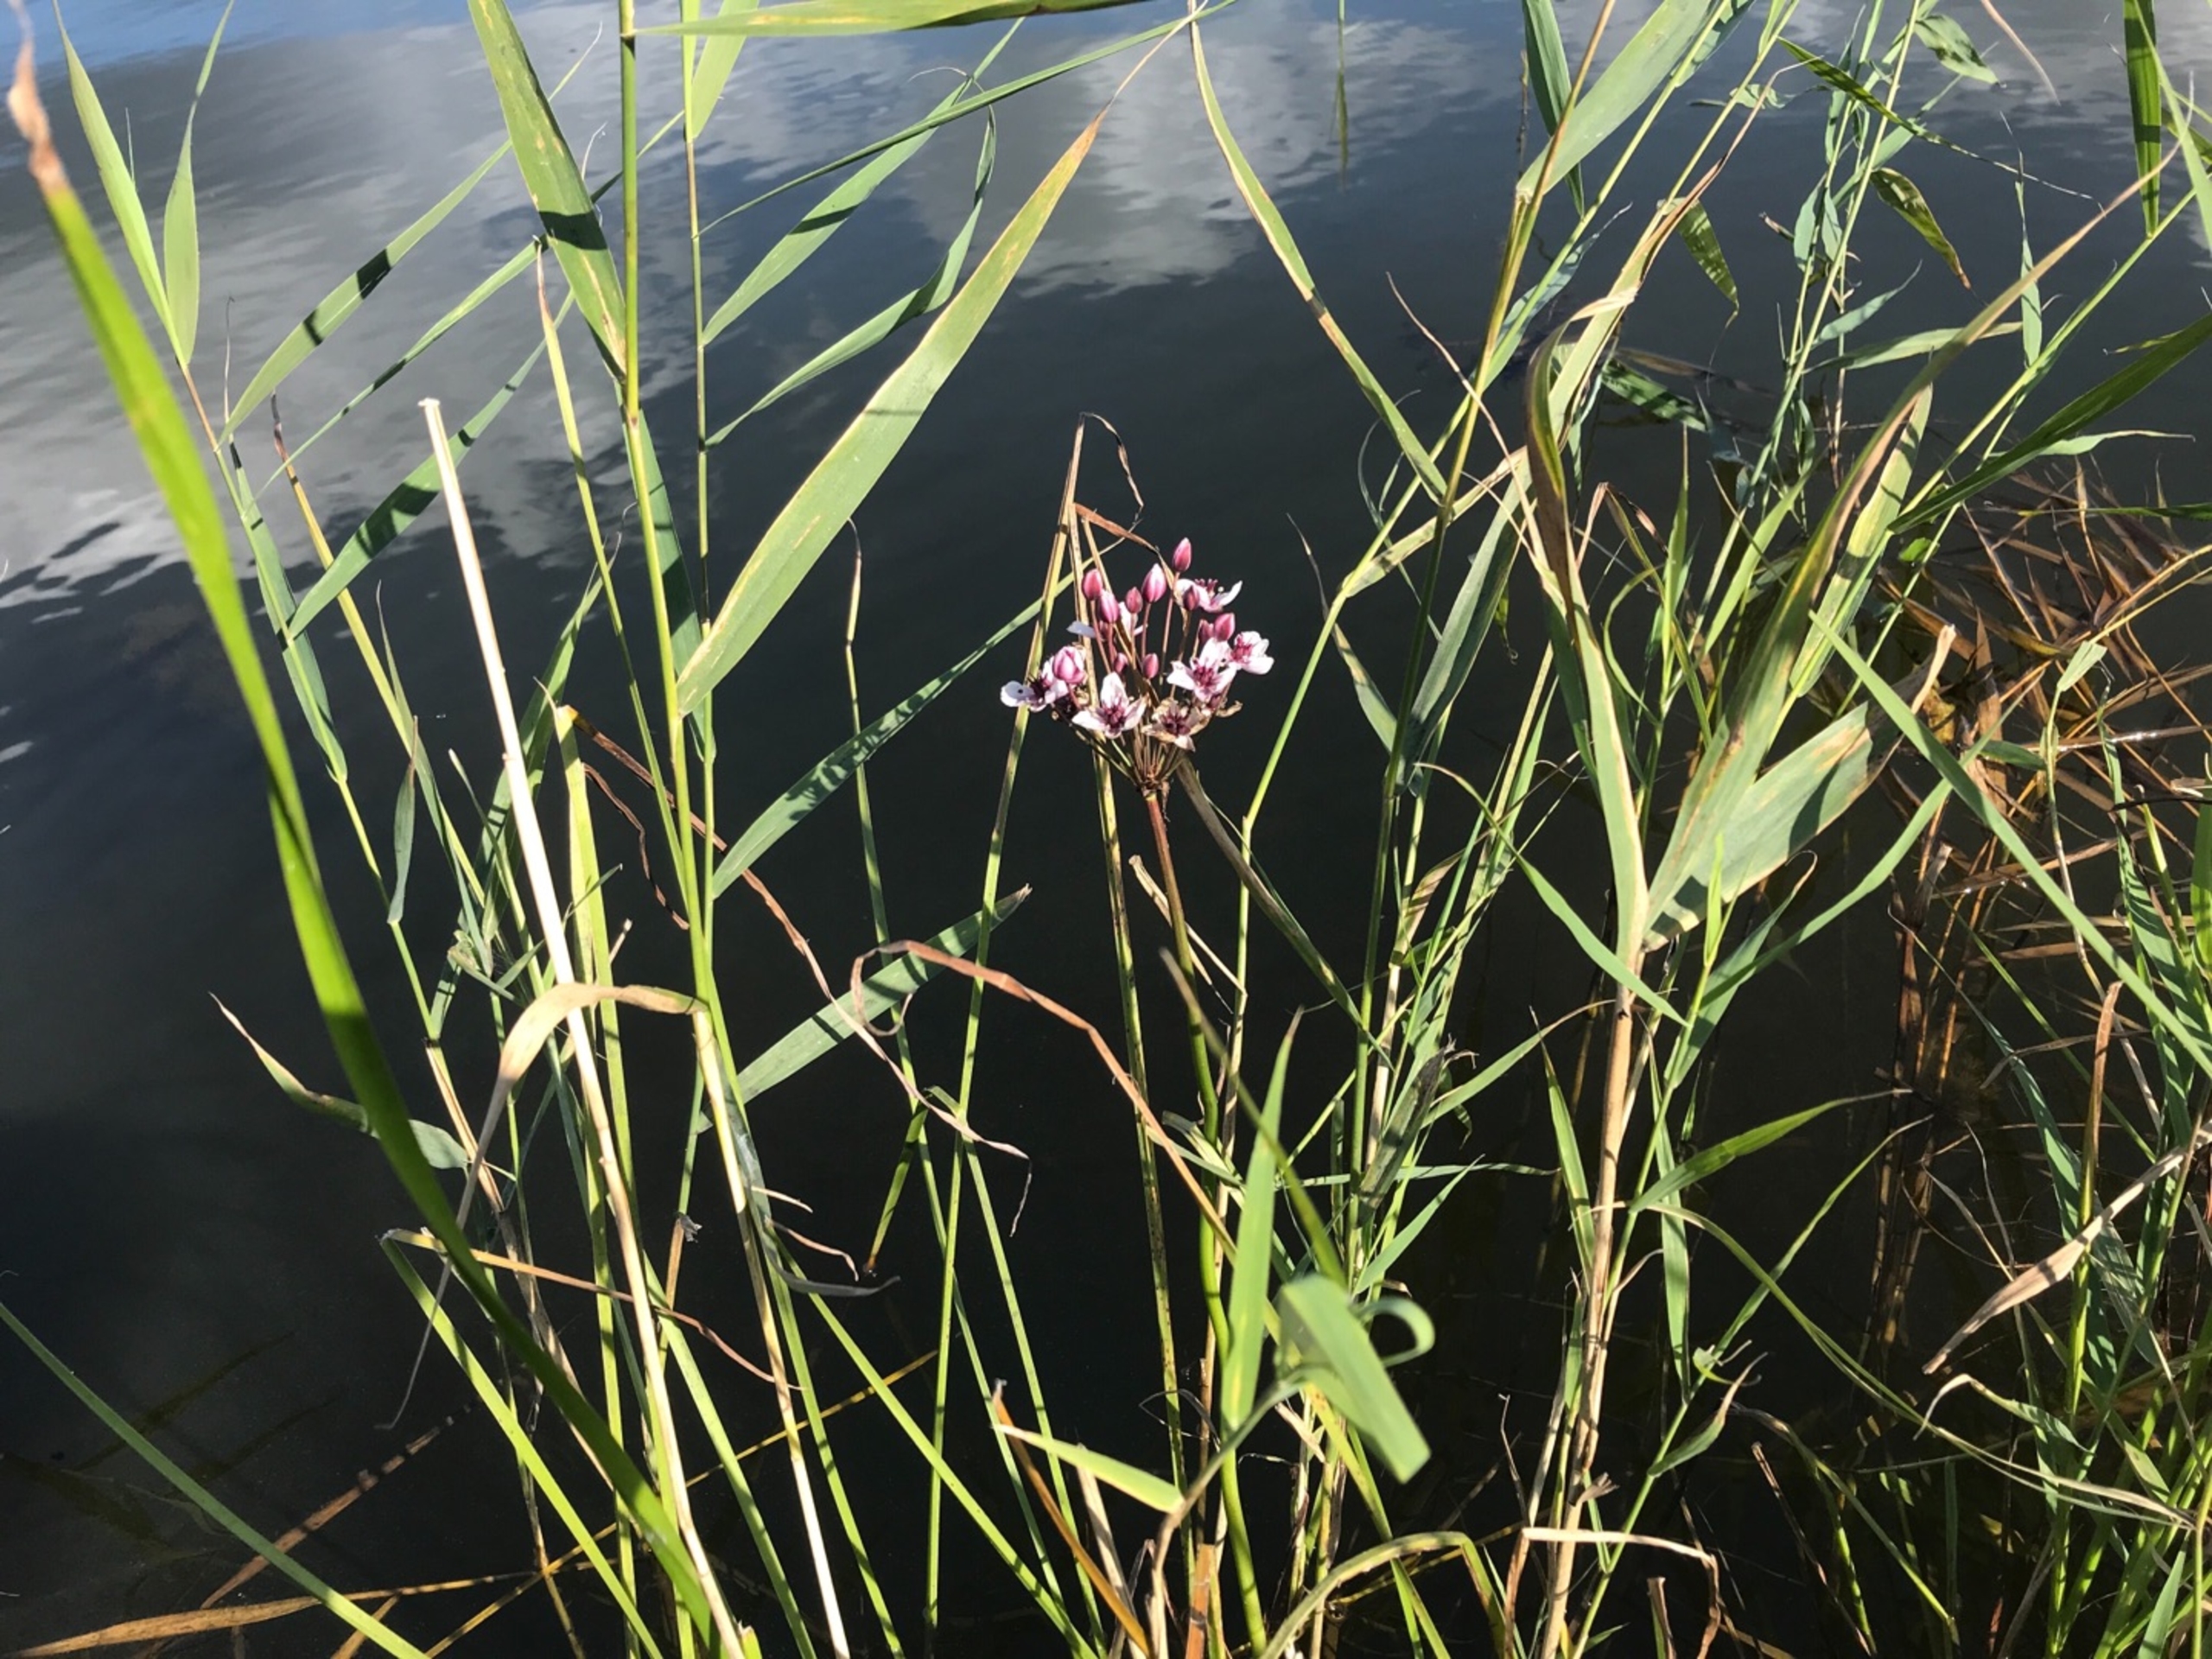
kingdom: Plantae
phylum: Tracheophyta
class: Liliopsida
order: Alismatales
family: Butomaceae
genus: Butomus
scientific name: Butomus umbellatus
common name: Brudelys
